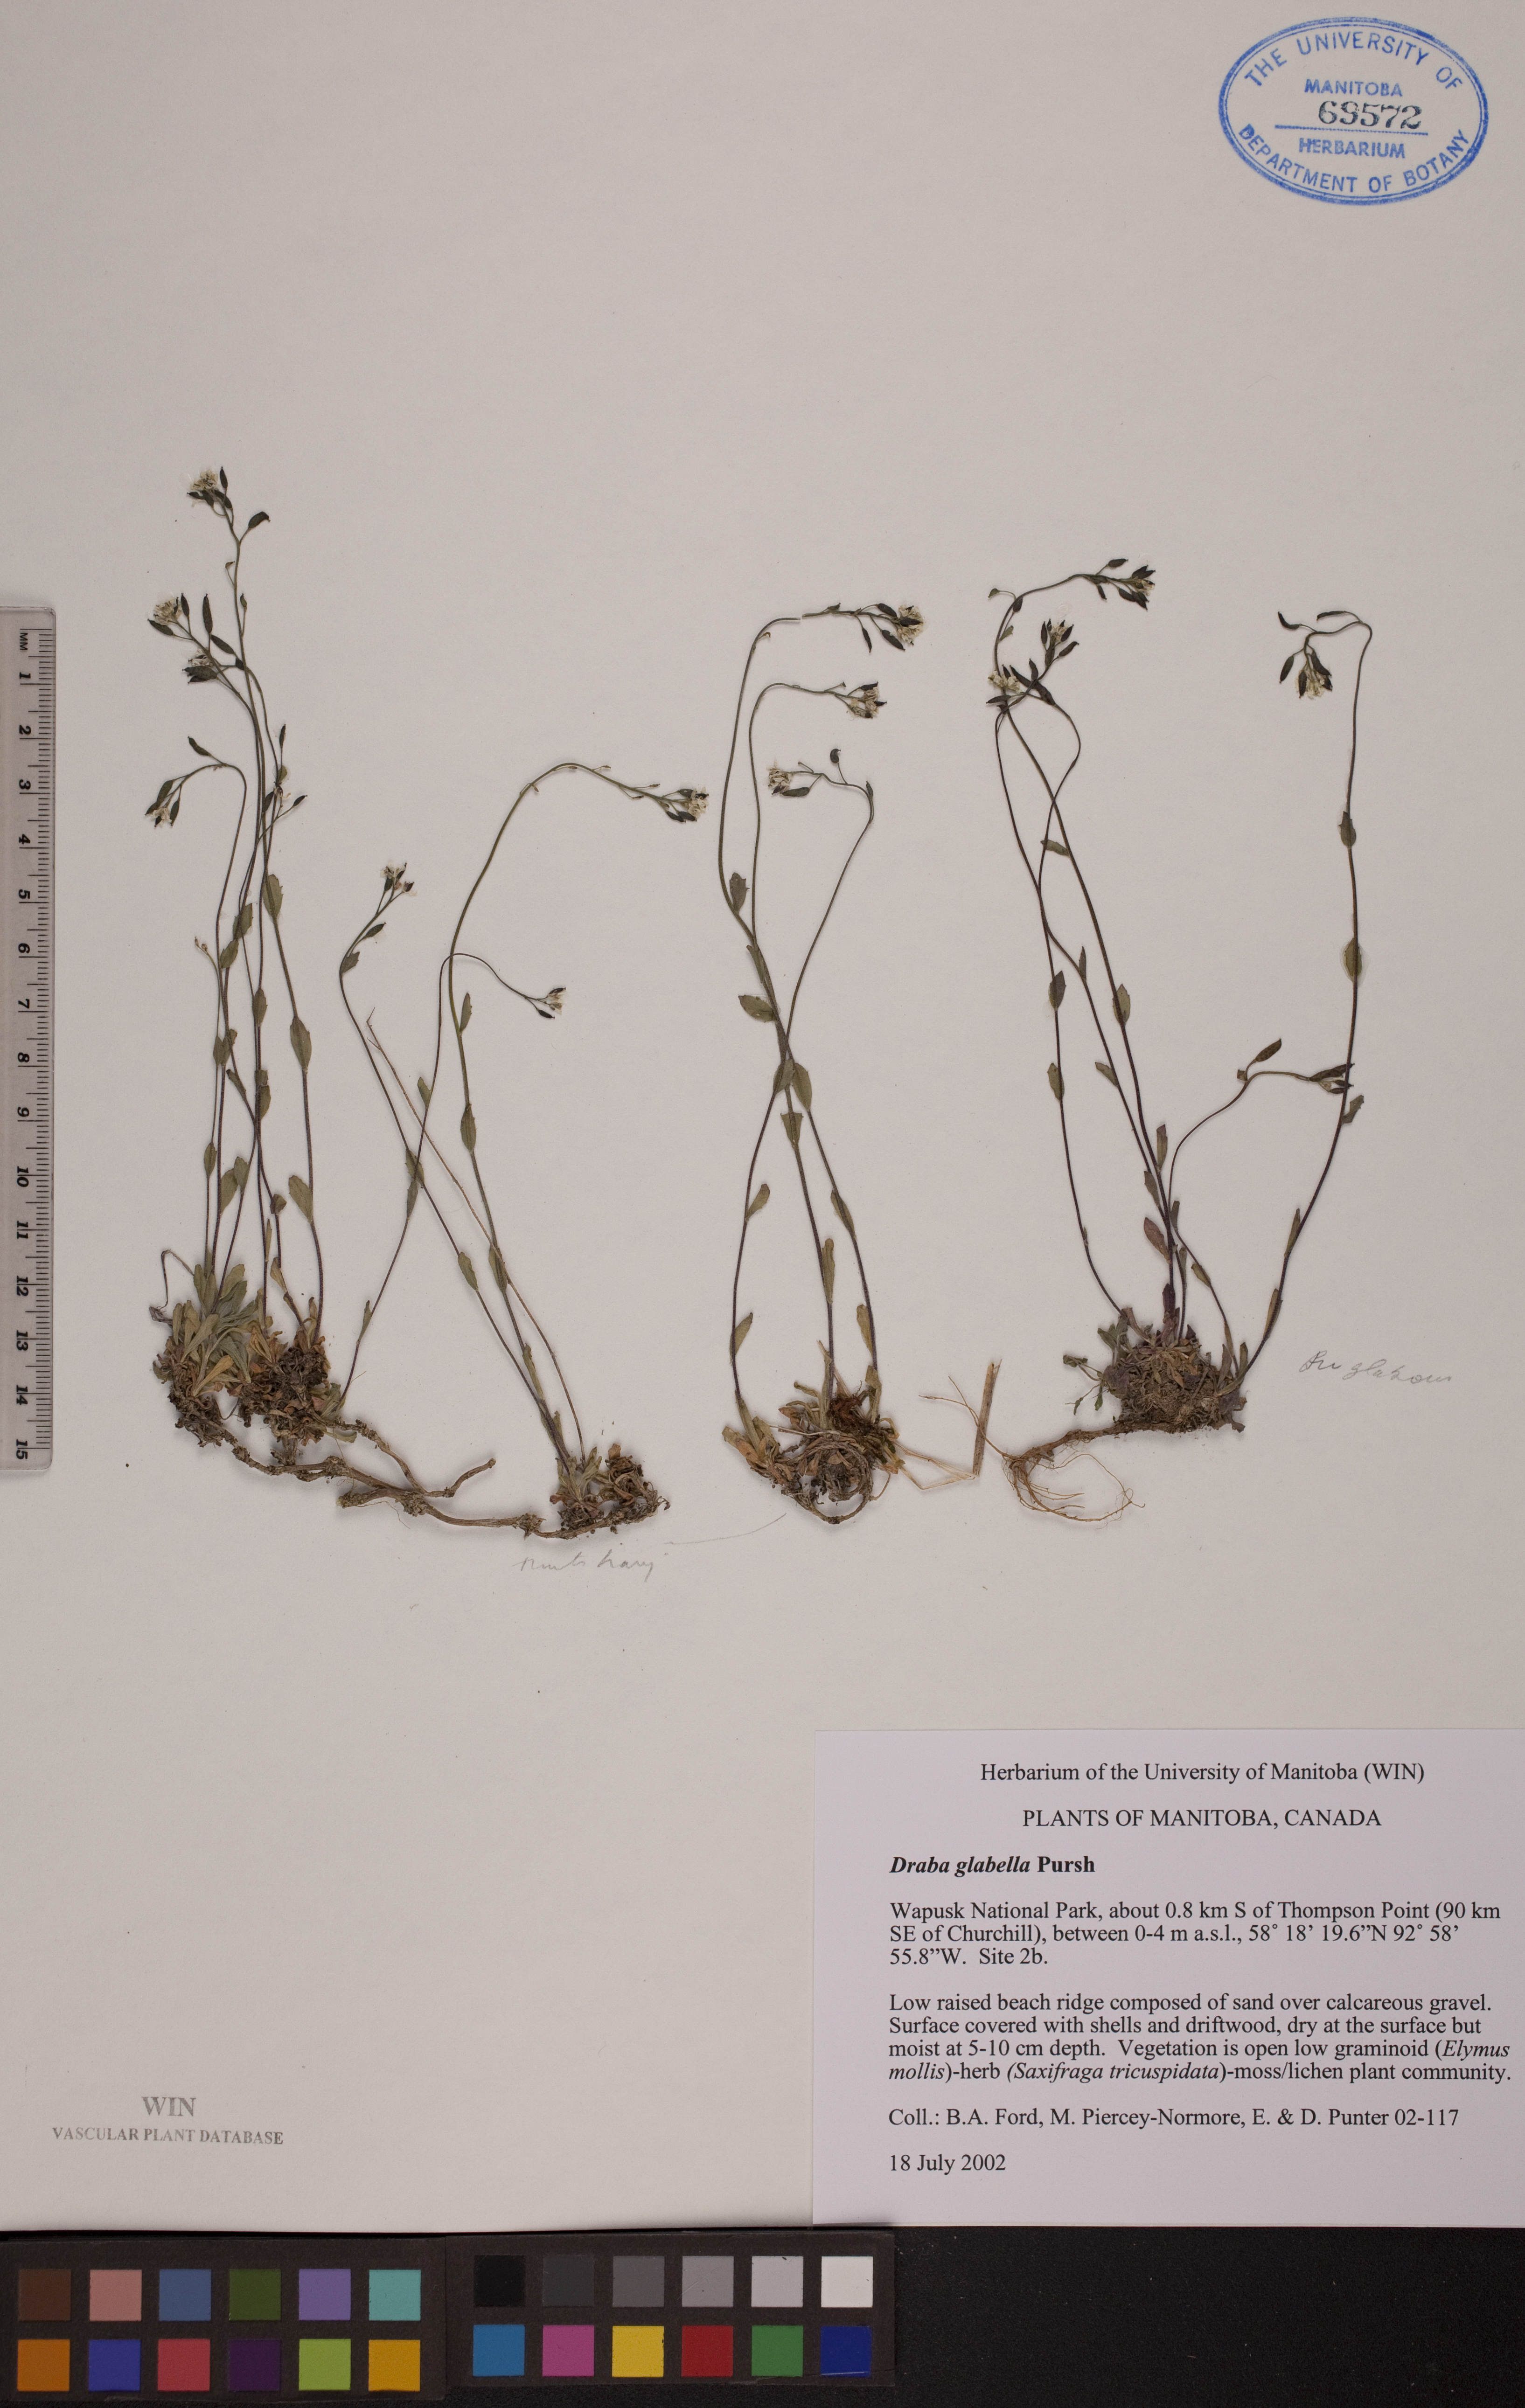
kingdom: Plantae
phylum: Tracheophyta
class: Magnoliopsida
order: Brassicales
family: Brassicaceae
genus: Draba
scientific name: Draba glabella
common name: Glaucous draba
